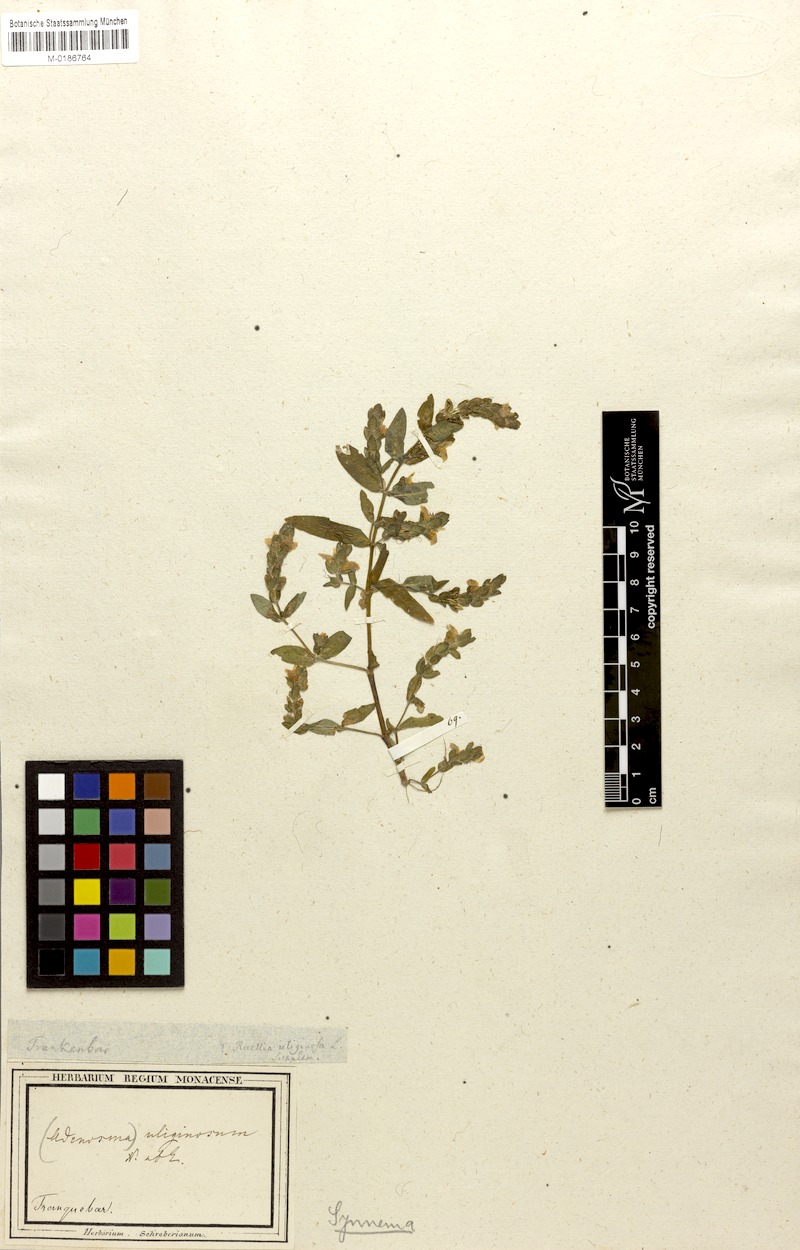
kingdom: Plantae
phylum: Tracheophyta
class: Magnoliopsida
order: Lamiales
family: Acanthaceae
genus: Hygrophila
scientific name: Hygrophila difformis
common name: Water-wisteria
